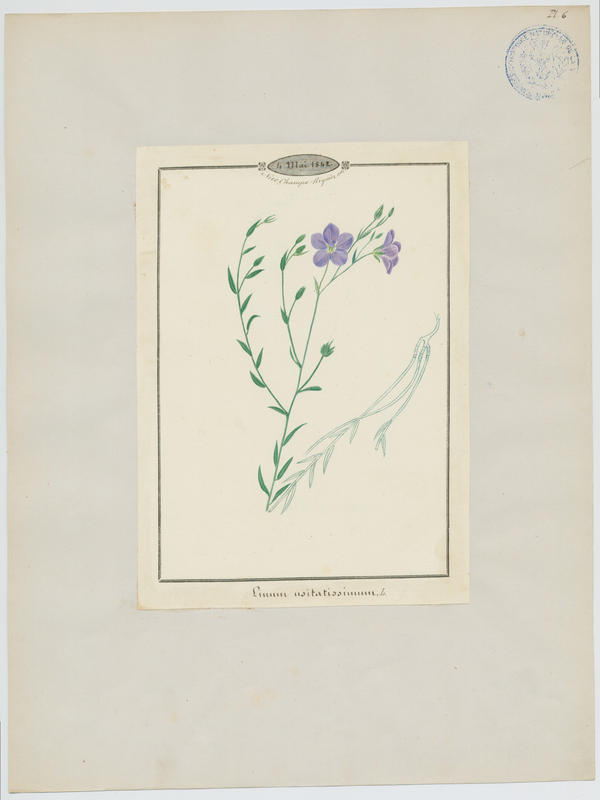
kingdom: Plantae
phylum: Tracheophyta
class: Magnoliopsida
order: Malpighiales
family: Linaceae
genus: Linum
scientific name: Linum usitatissimum
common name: Flax
